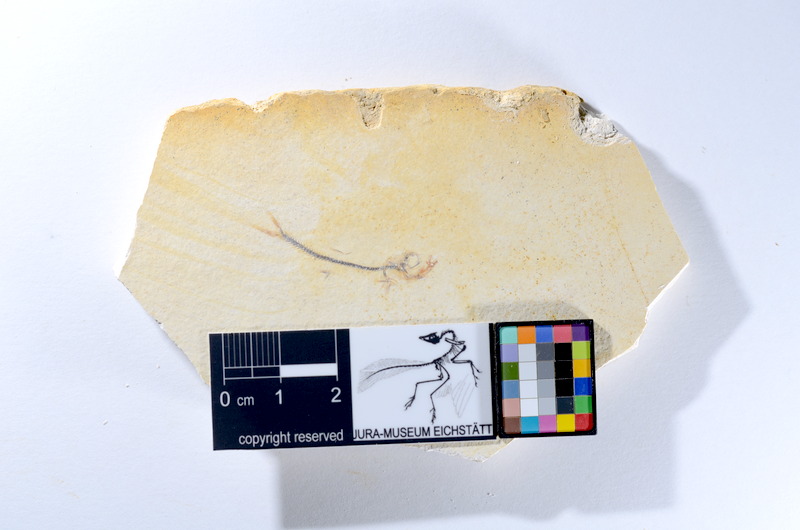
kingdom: Animalia
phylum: Chordata
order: Salmoniformes
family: Orthogonikleithridae
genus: Orthogonikleithrus
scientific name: Orthogonikleithrus hoelli
